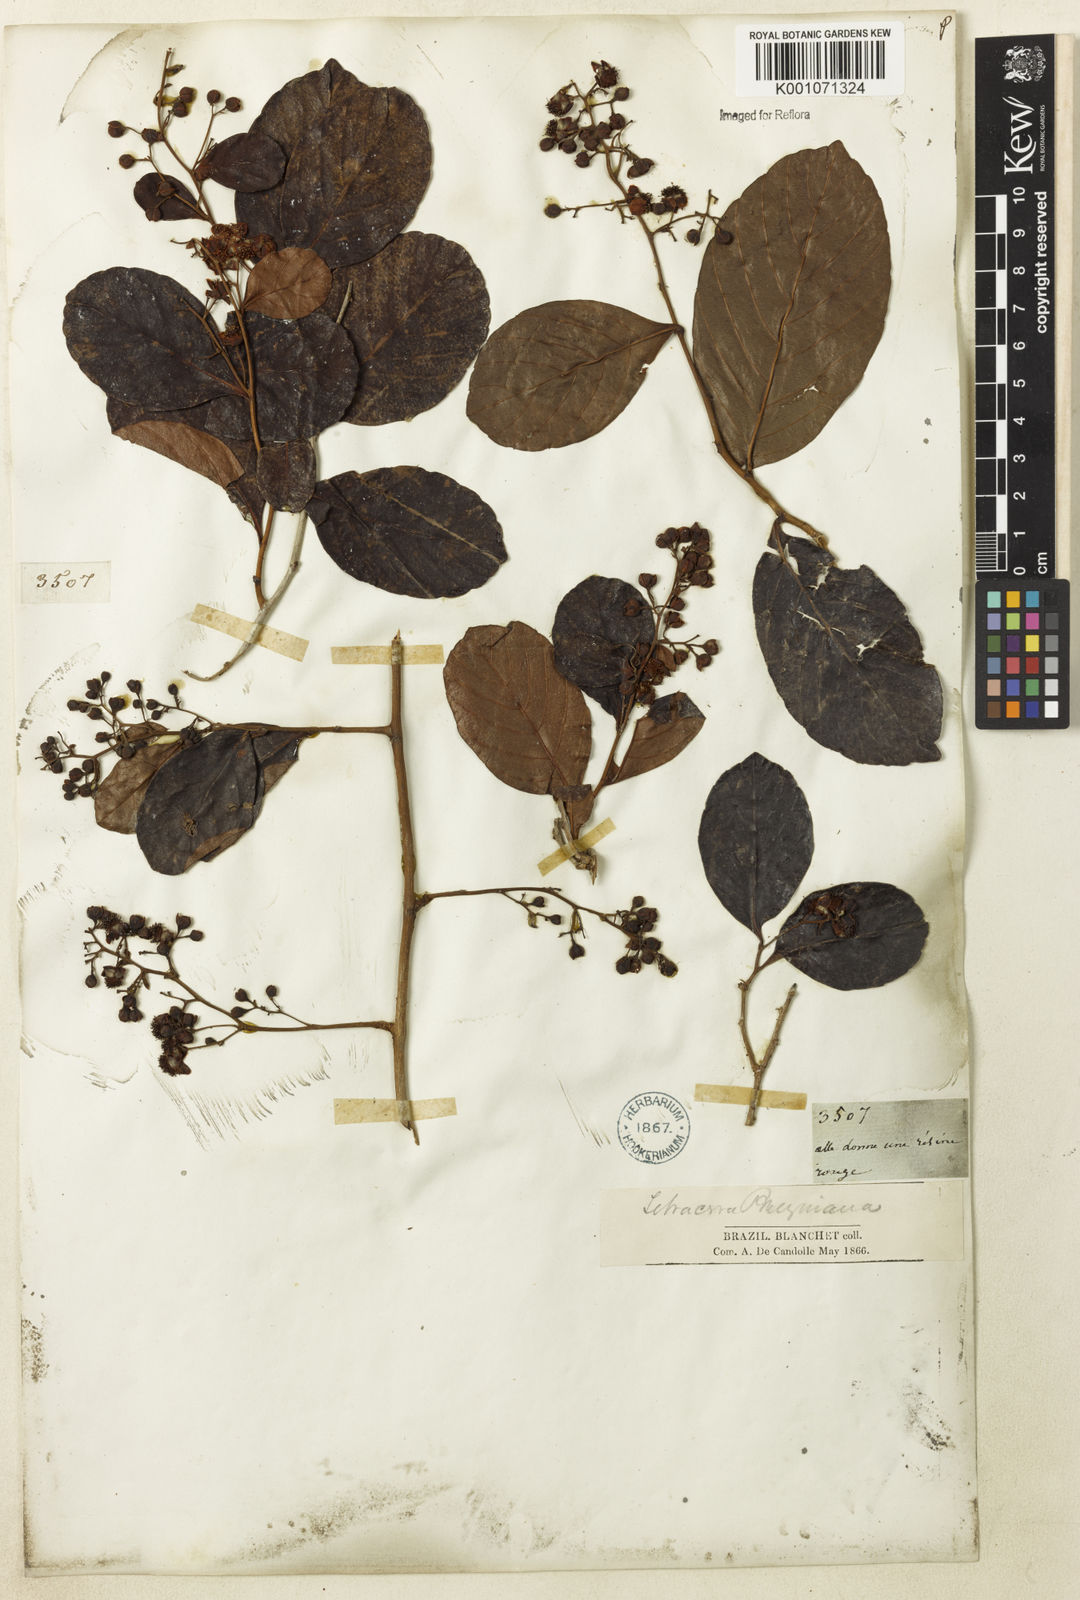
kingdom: Plantae
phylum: Tracheophyta
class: Magnoliopsida
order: Dilleniales
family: Dilleniaceae
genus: Tetracera
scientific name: Tetracera breyniana
